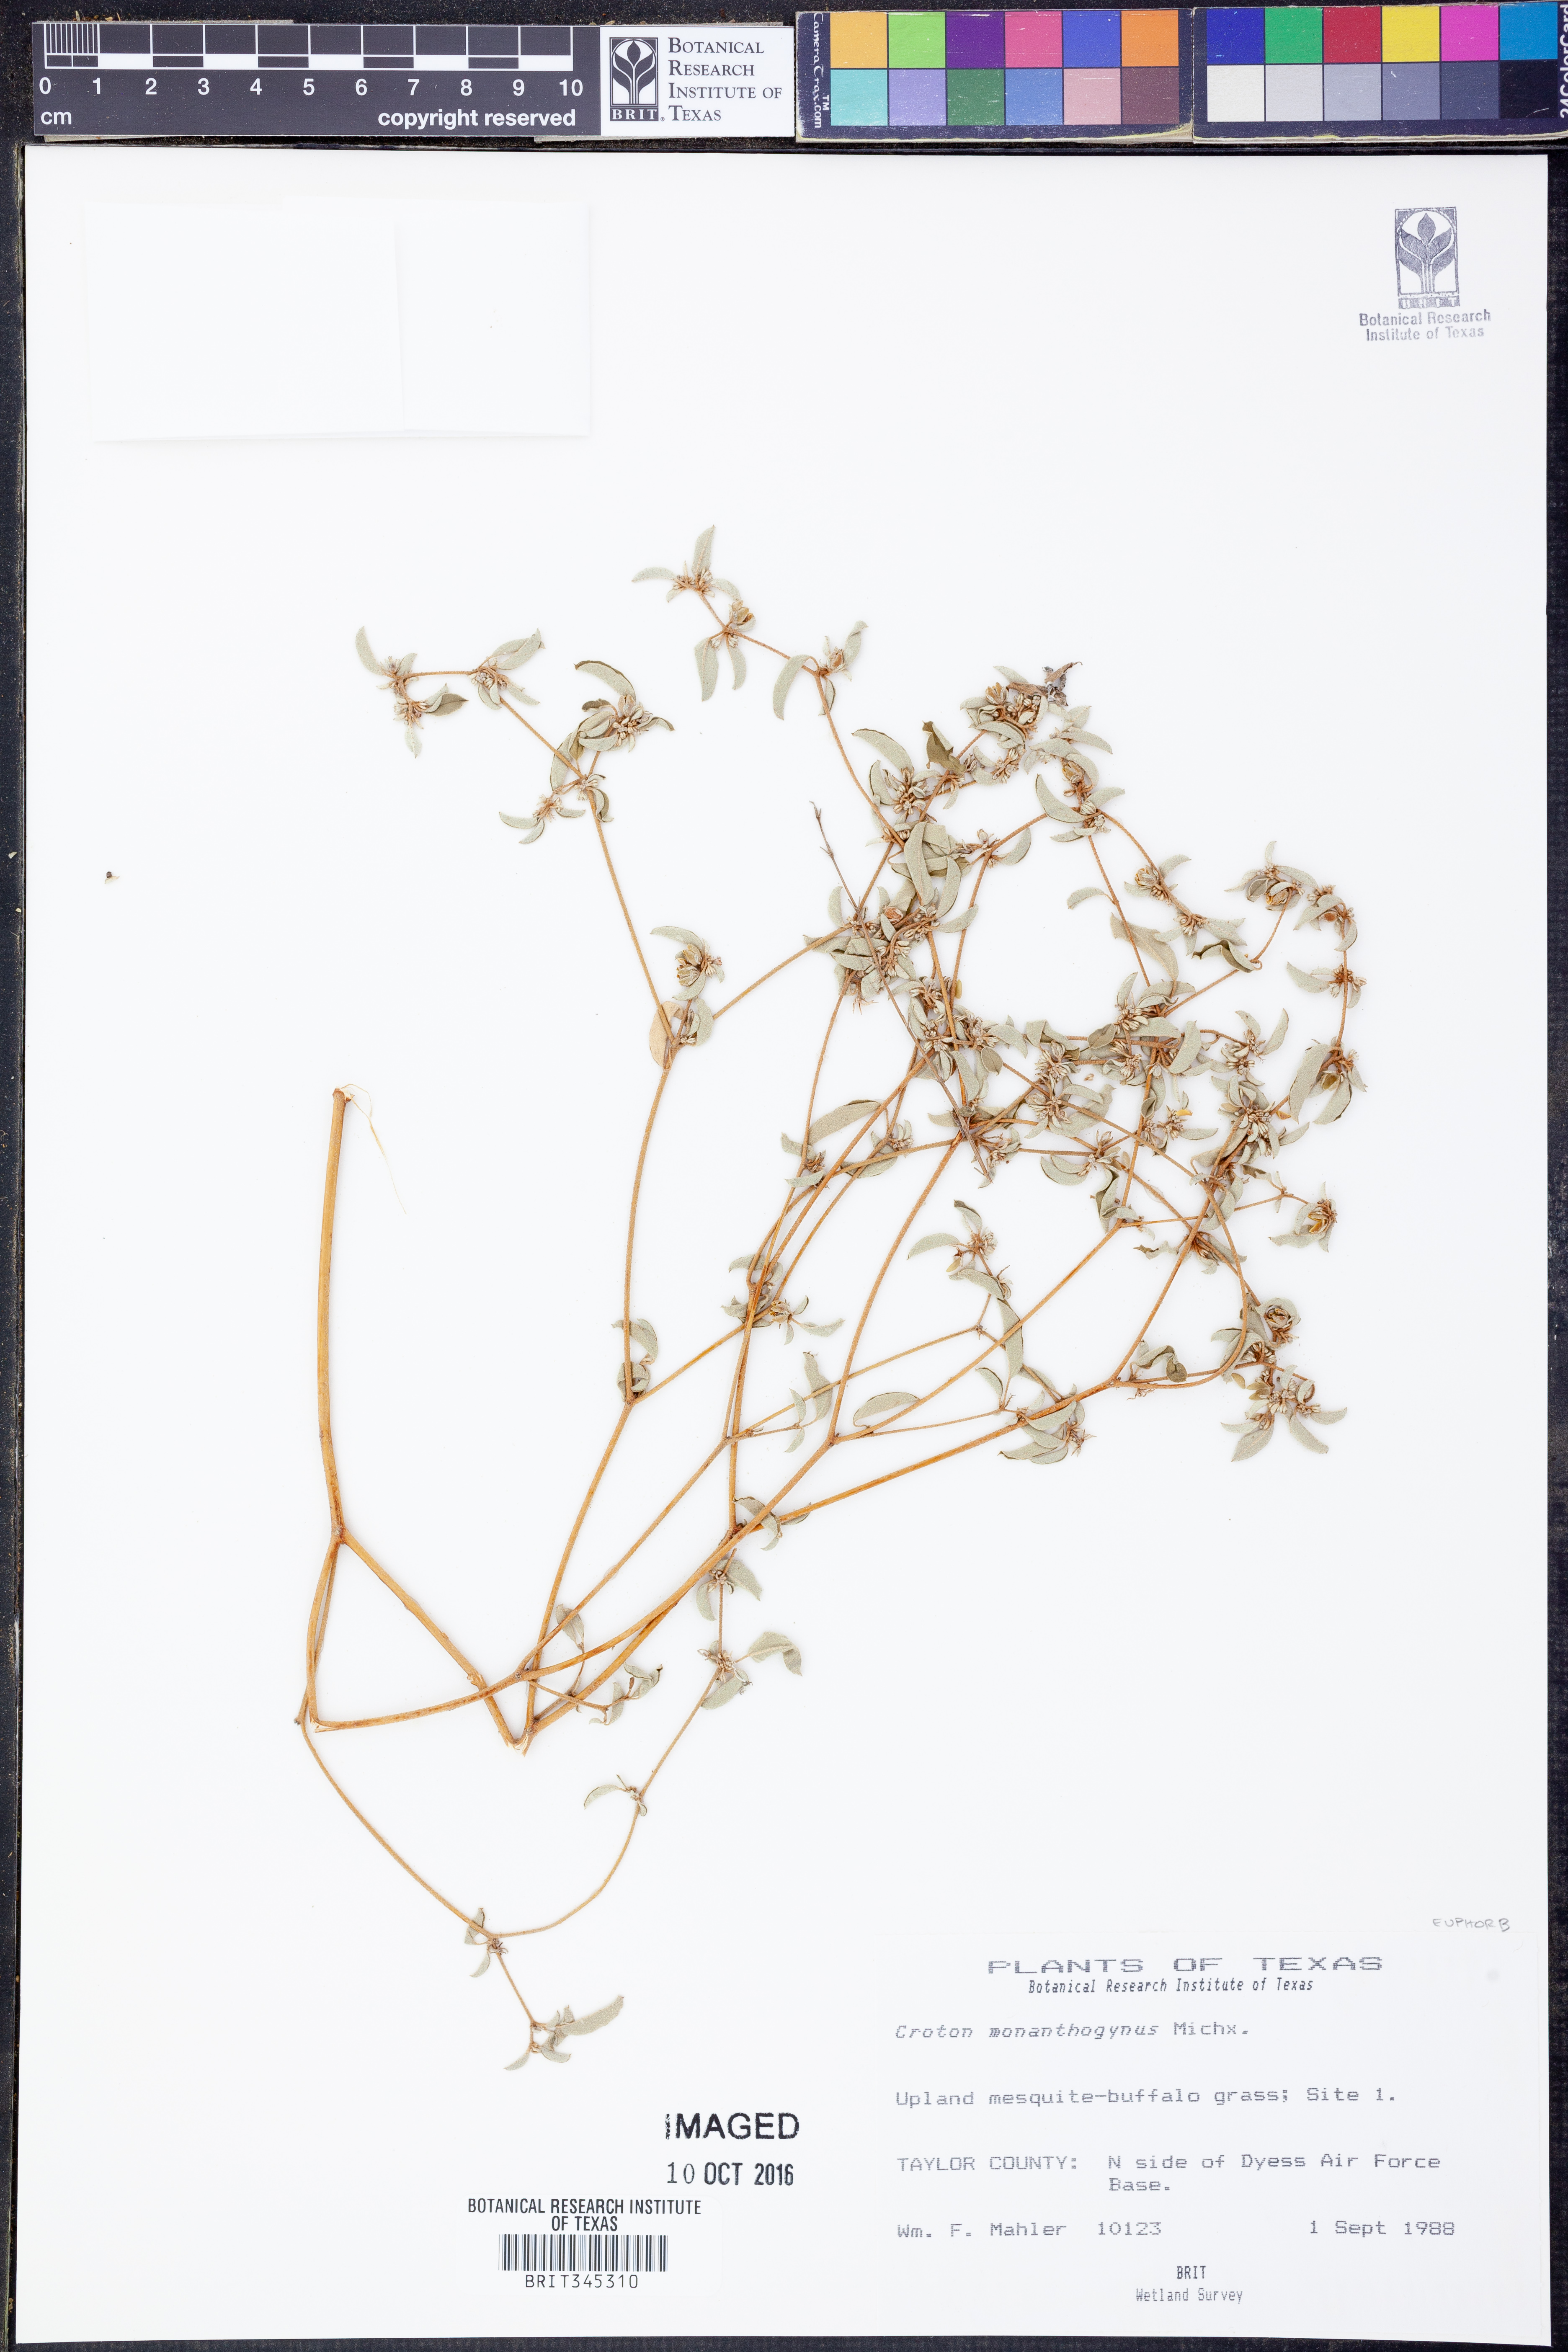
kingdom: Plantae
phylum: Tracheophyta
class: Magnoliopsida
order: Malpighiales
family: Euphorbiaceae
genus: Croton
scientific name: Croton monanthogynus
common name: One-seed croton
